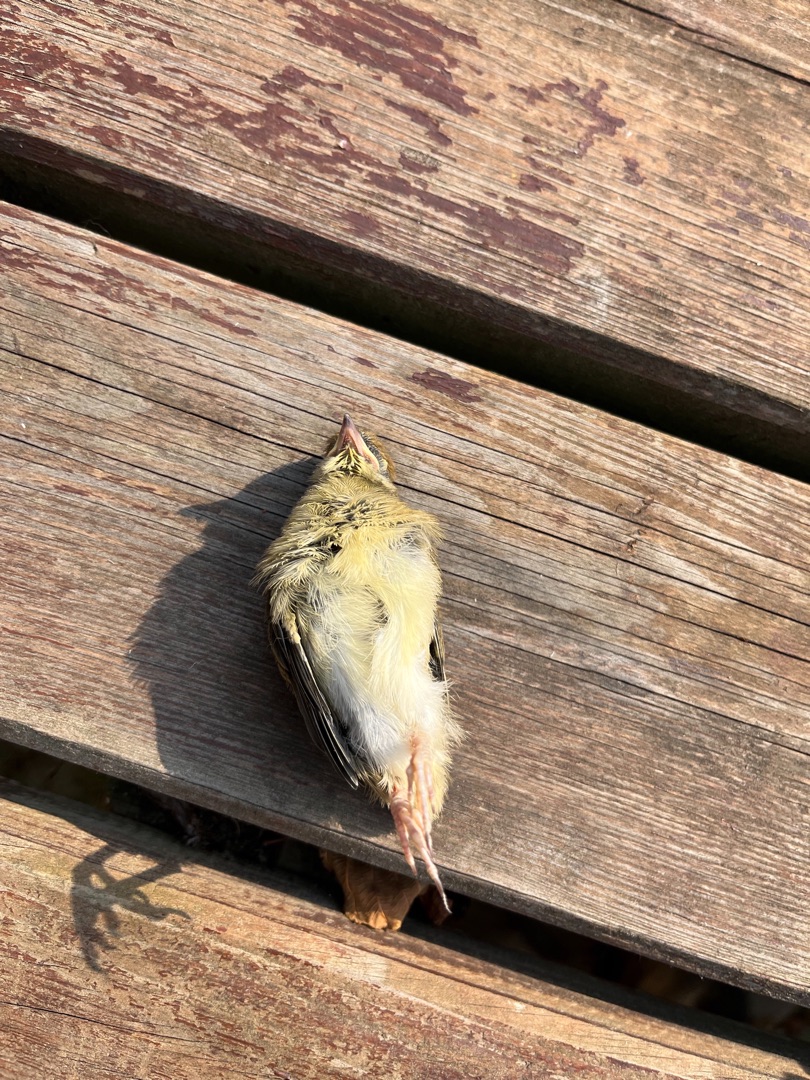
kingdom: Animalia
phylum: Chordata
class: Aves
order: Passeriformes
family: Phylloscopidae
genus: Phylloscopus
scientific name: Phylloscopus trochilus
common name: Løvsanger
